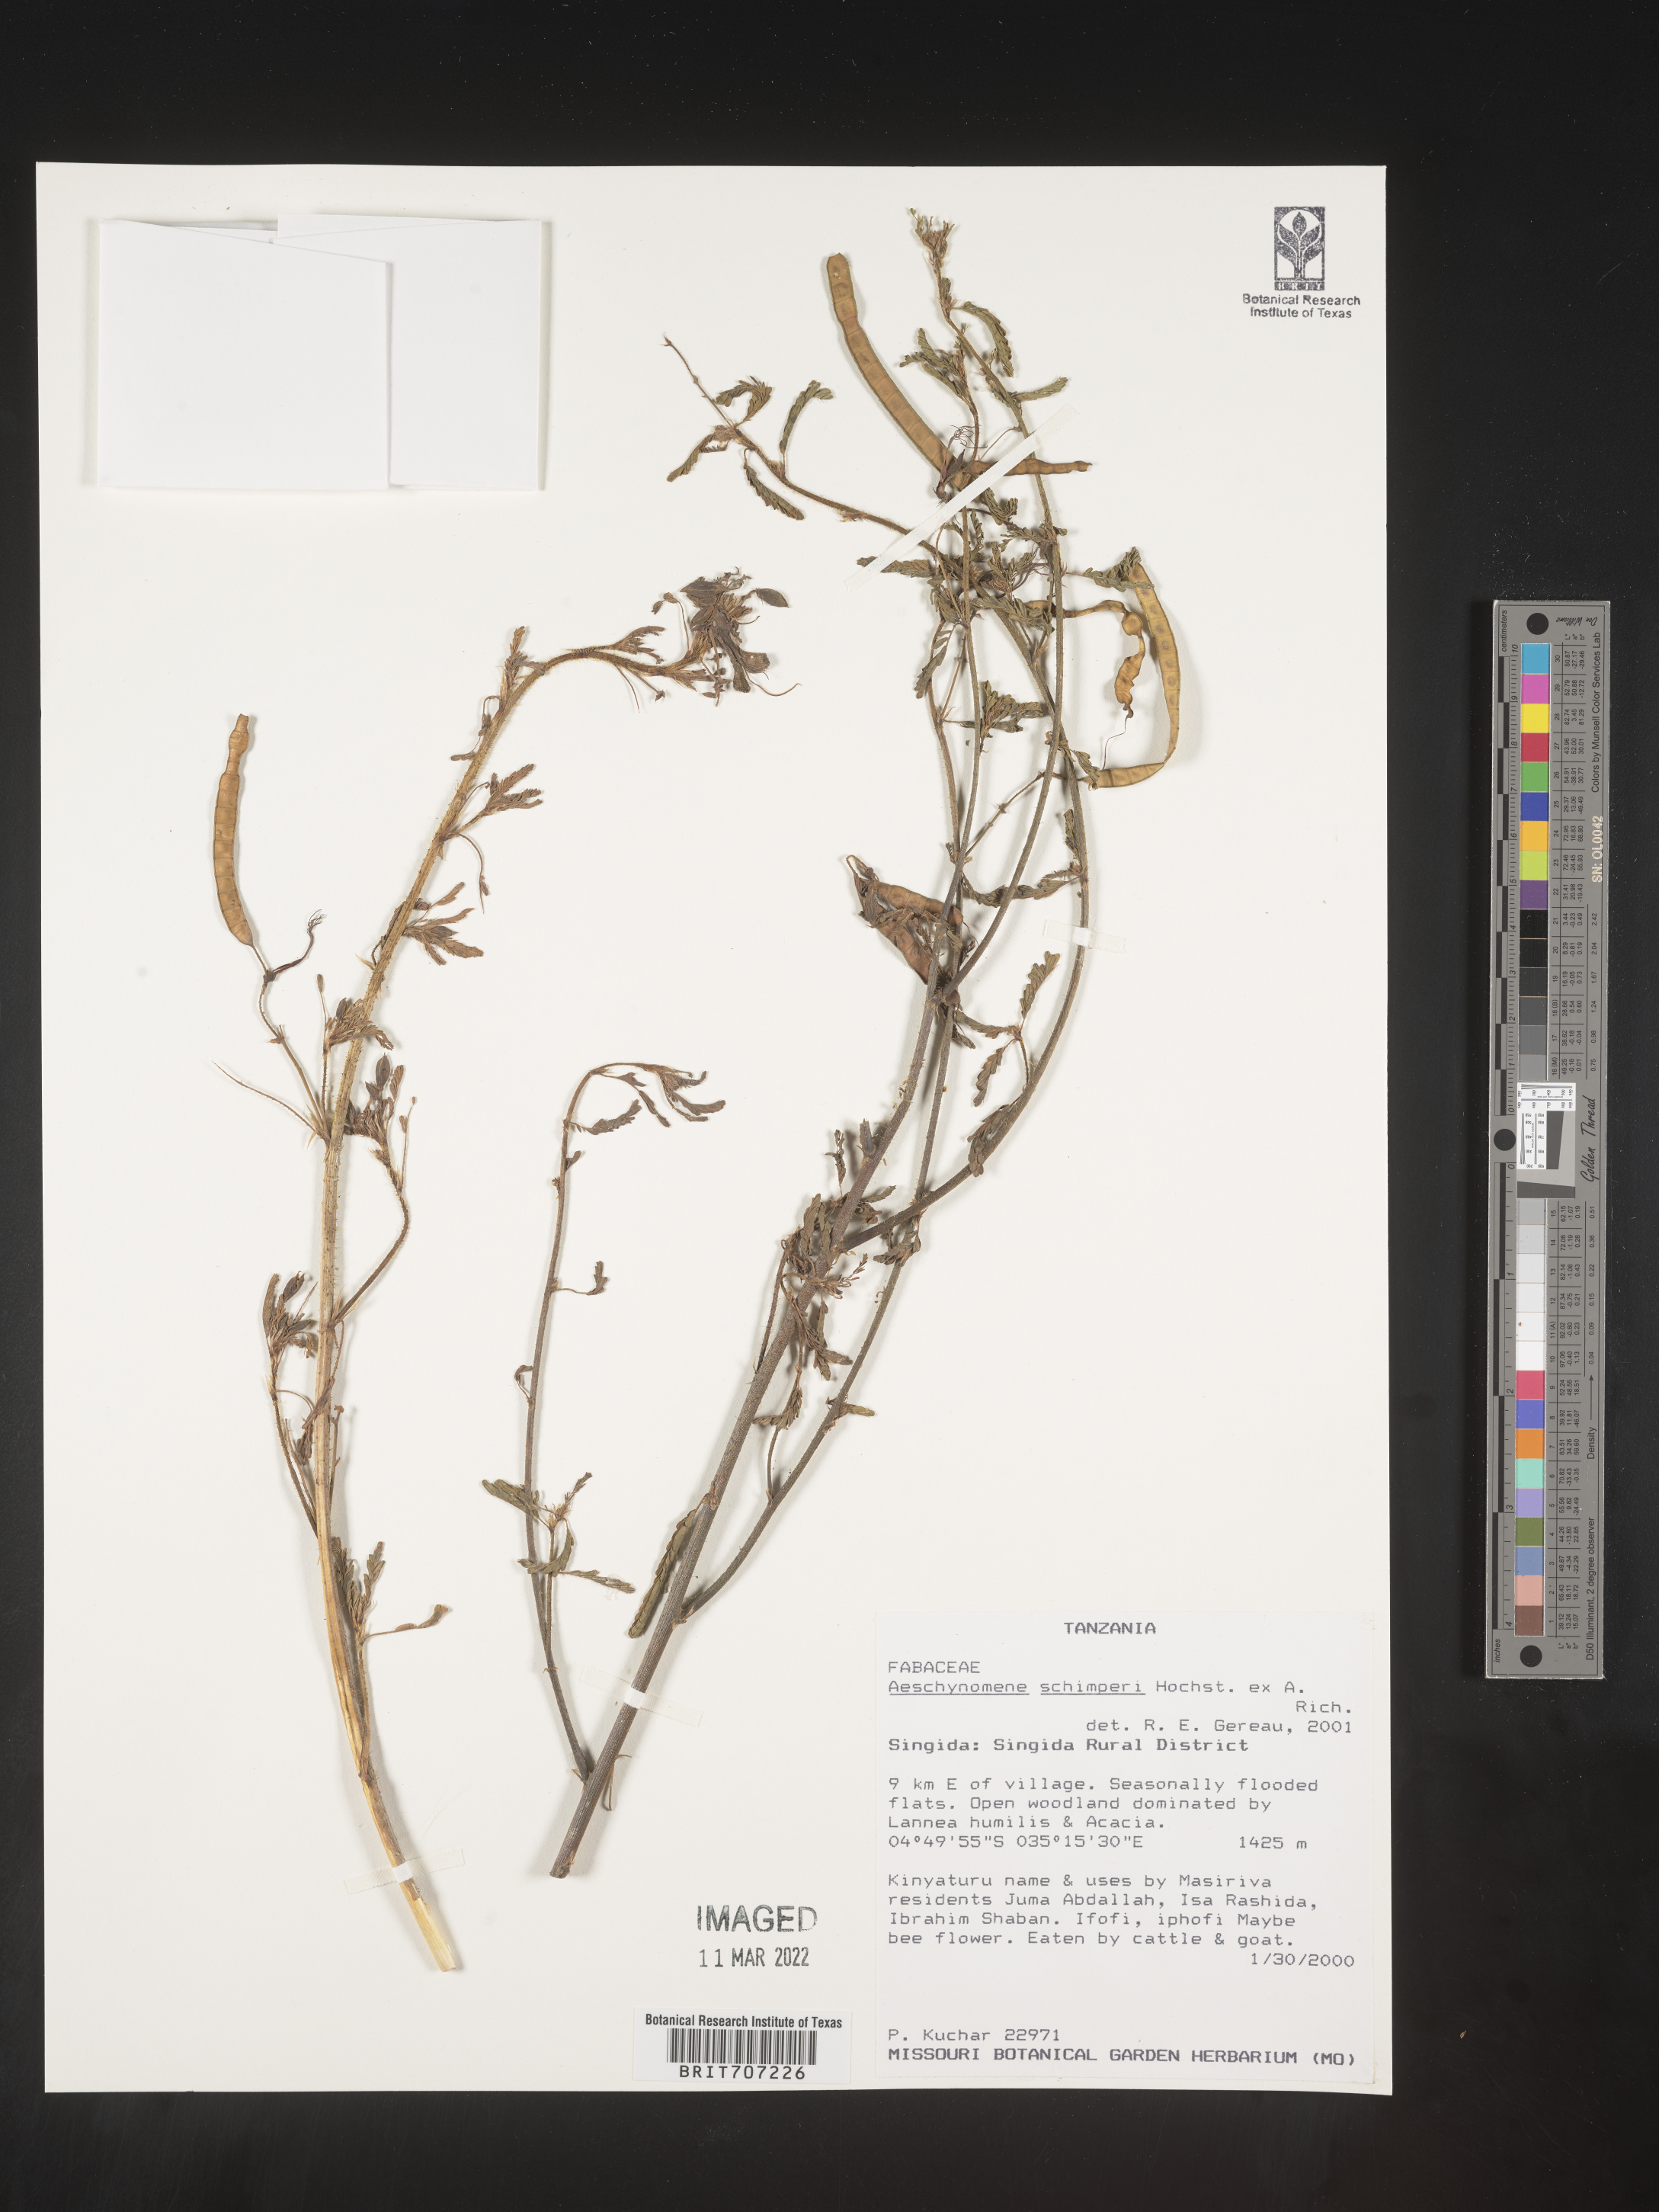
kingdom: Plantae
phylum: Tracheophyta
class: Magnoliopsida
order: Fabales
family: Fabaceae
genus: Aeschynomene
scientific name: Aeschynomene
